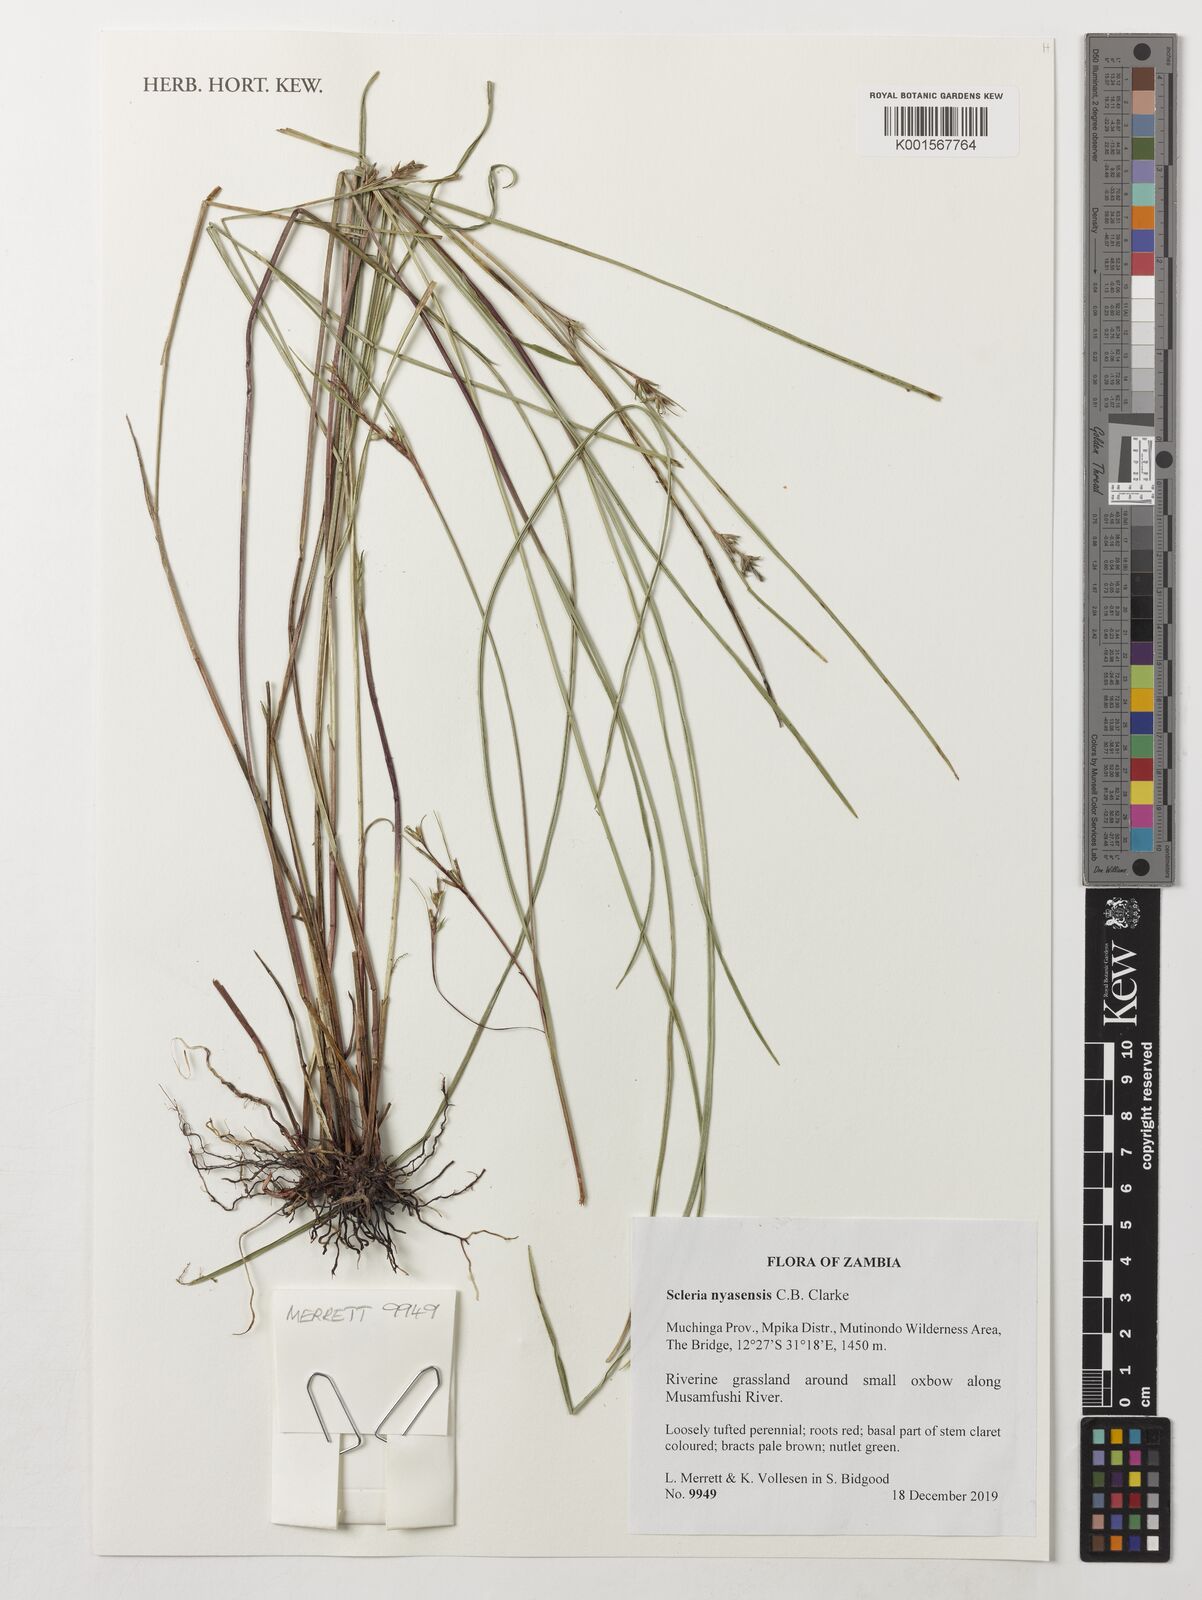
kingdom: Plantae
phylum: Tracheophyta
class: Liliopsida
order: Poales
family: Cyperaceae
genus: Scleria
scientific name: Scleria nyasensis
